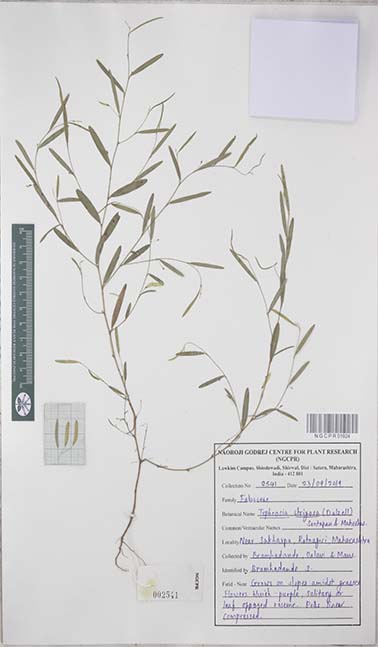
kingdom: Plantae
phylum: Tracheophyta
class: Magnoliopsida
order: Fabales
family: Fabaceae
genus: Tephrosia
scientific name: Tephrosia strigosa
